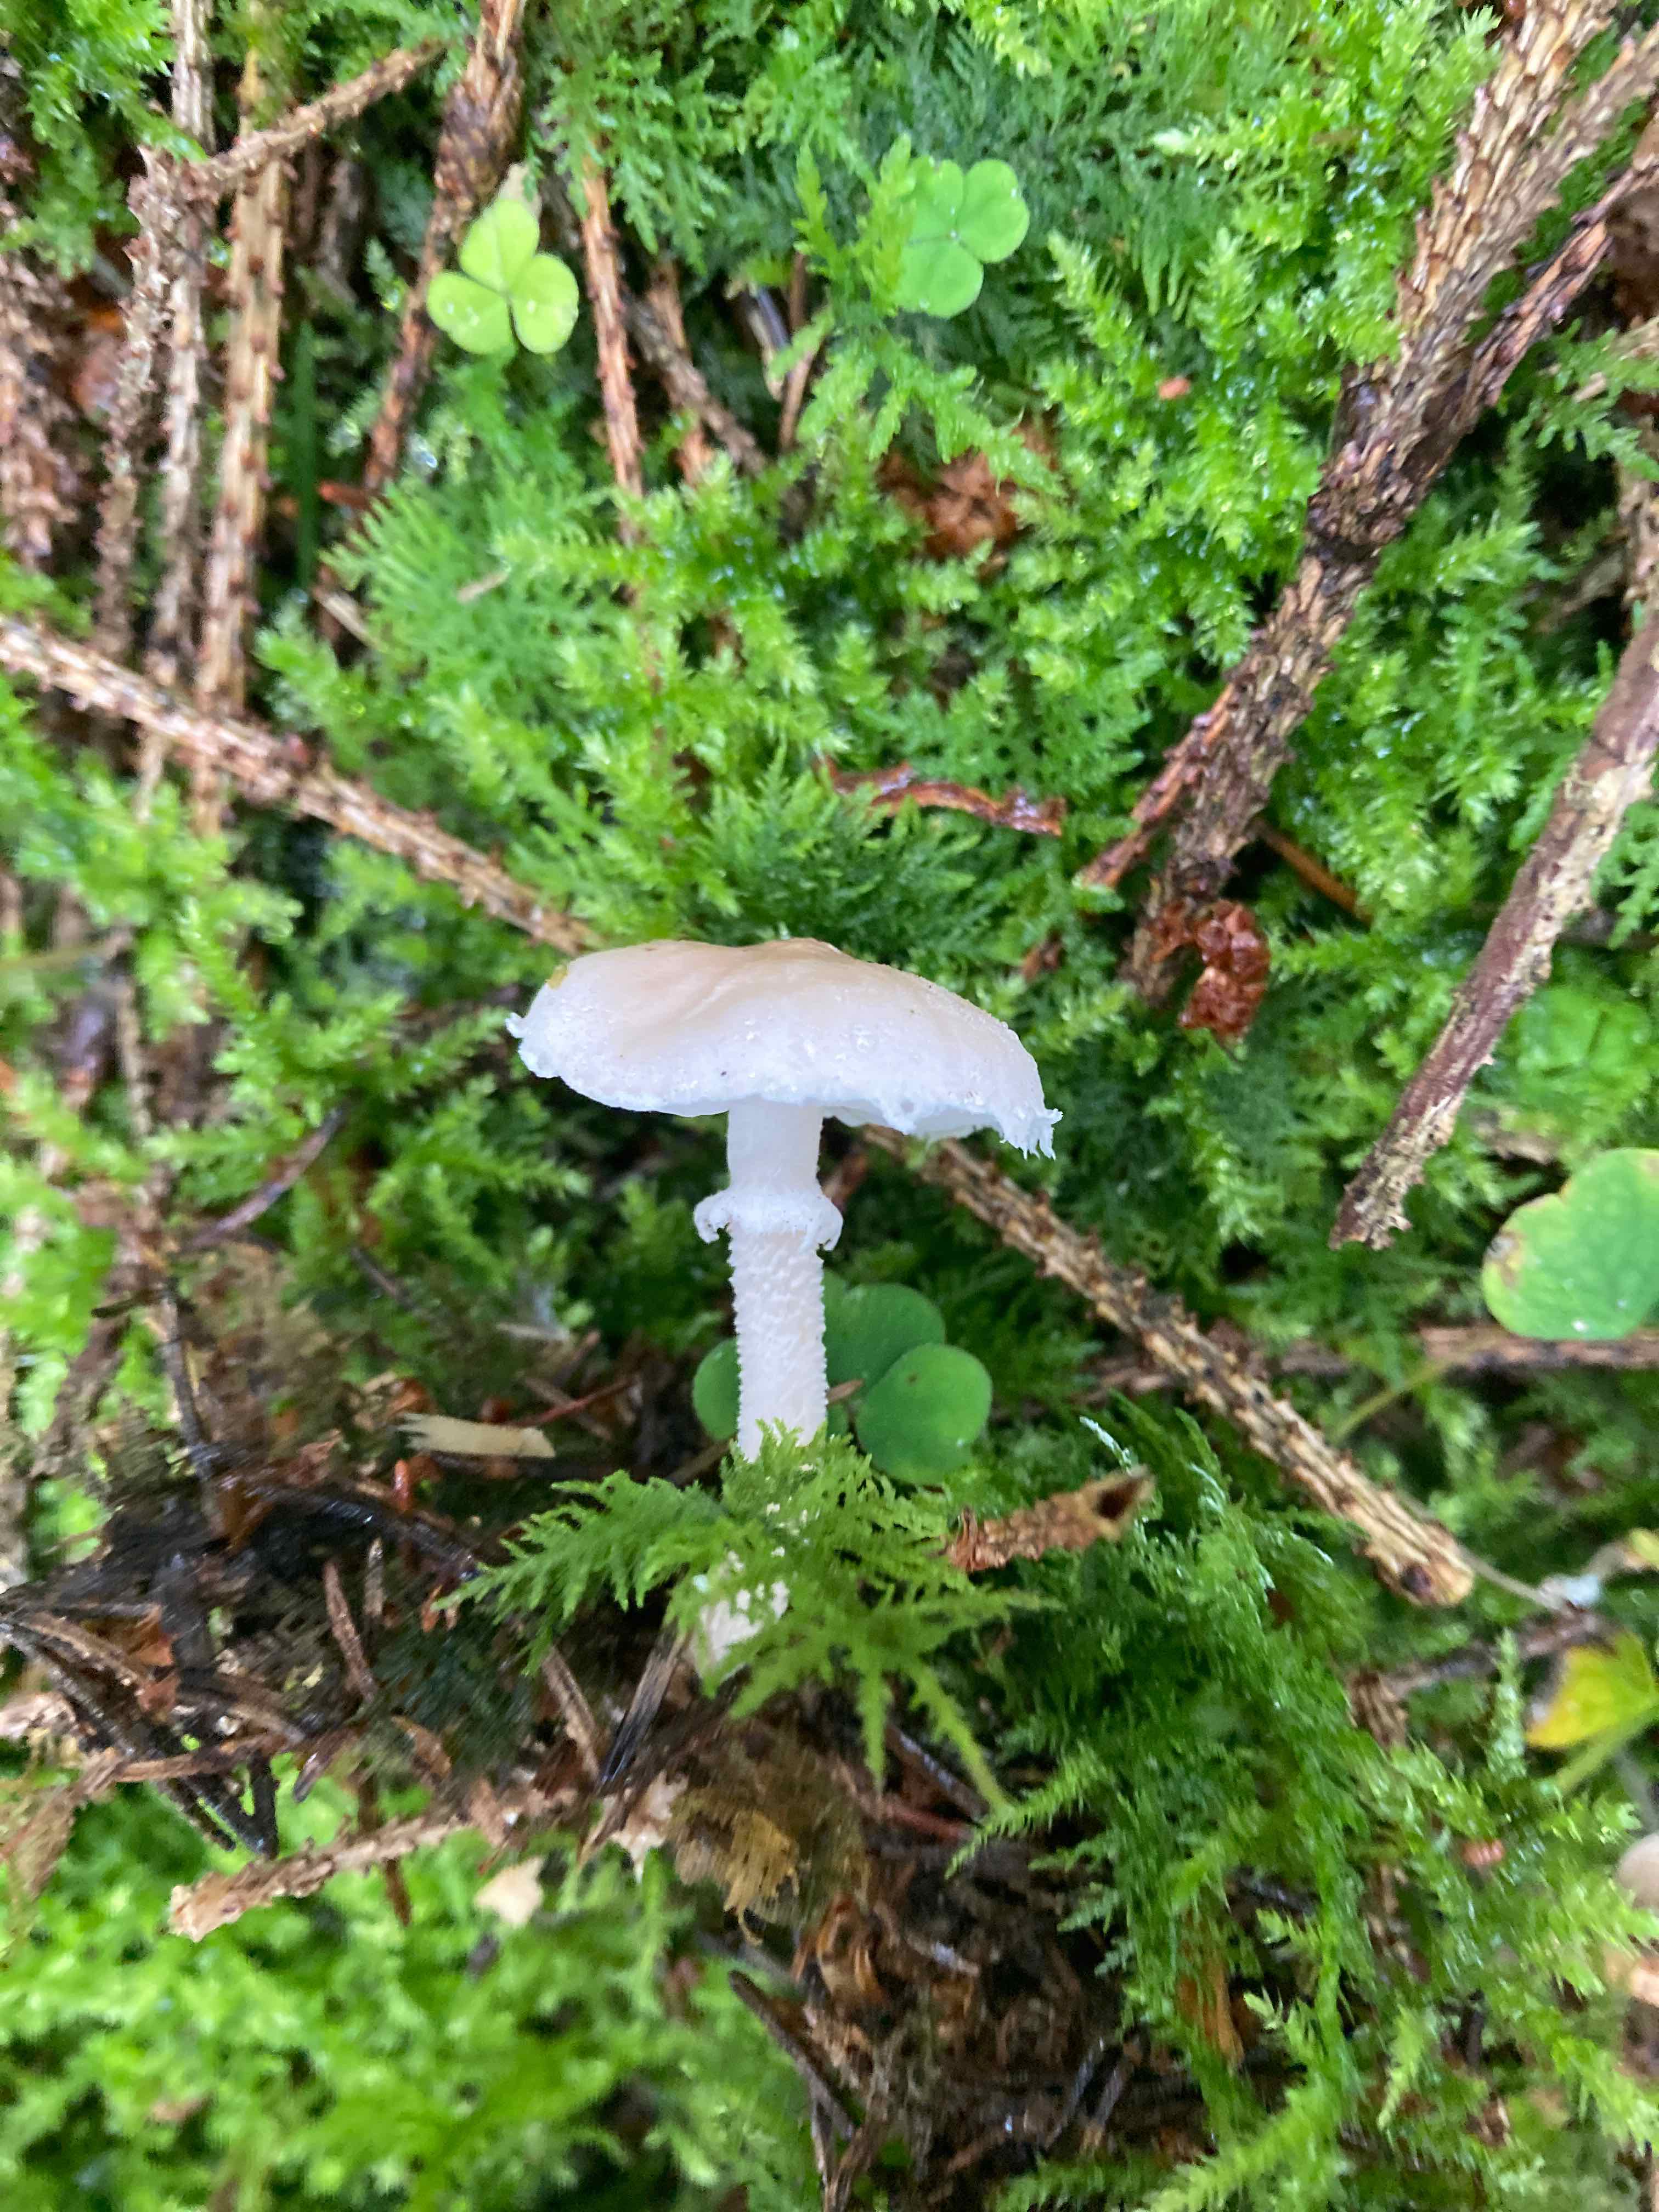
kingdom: Fungi
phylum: Basidiomycota
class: Agaricomycetes
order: Agaricales
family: Tricholomataceae
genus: Cystoderma
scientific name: Cystoderma carcharias
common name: rødgrå grynhat
